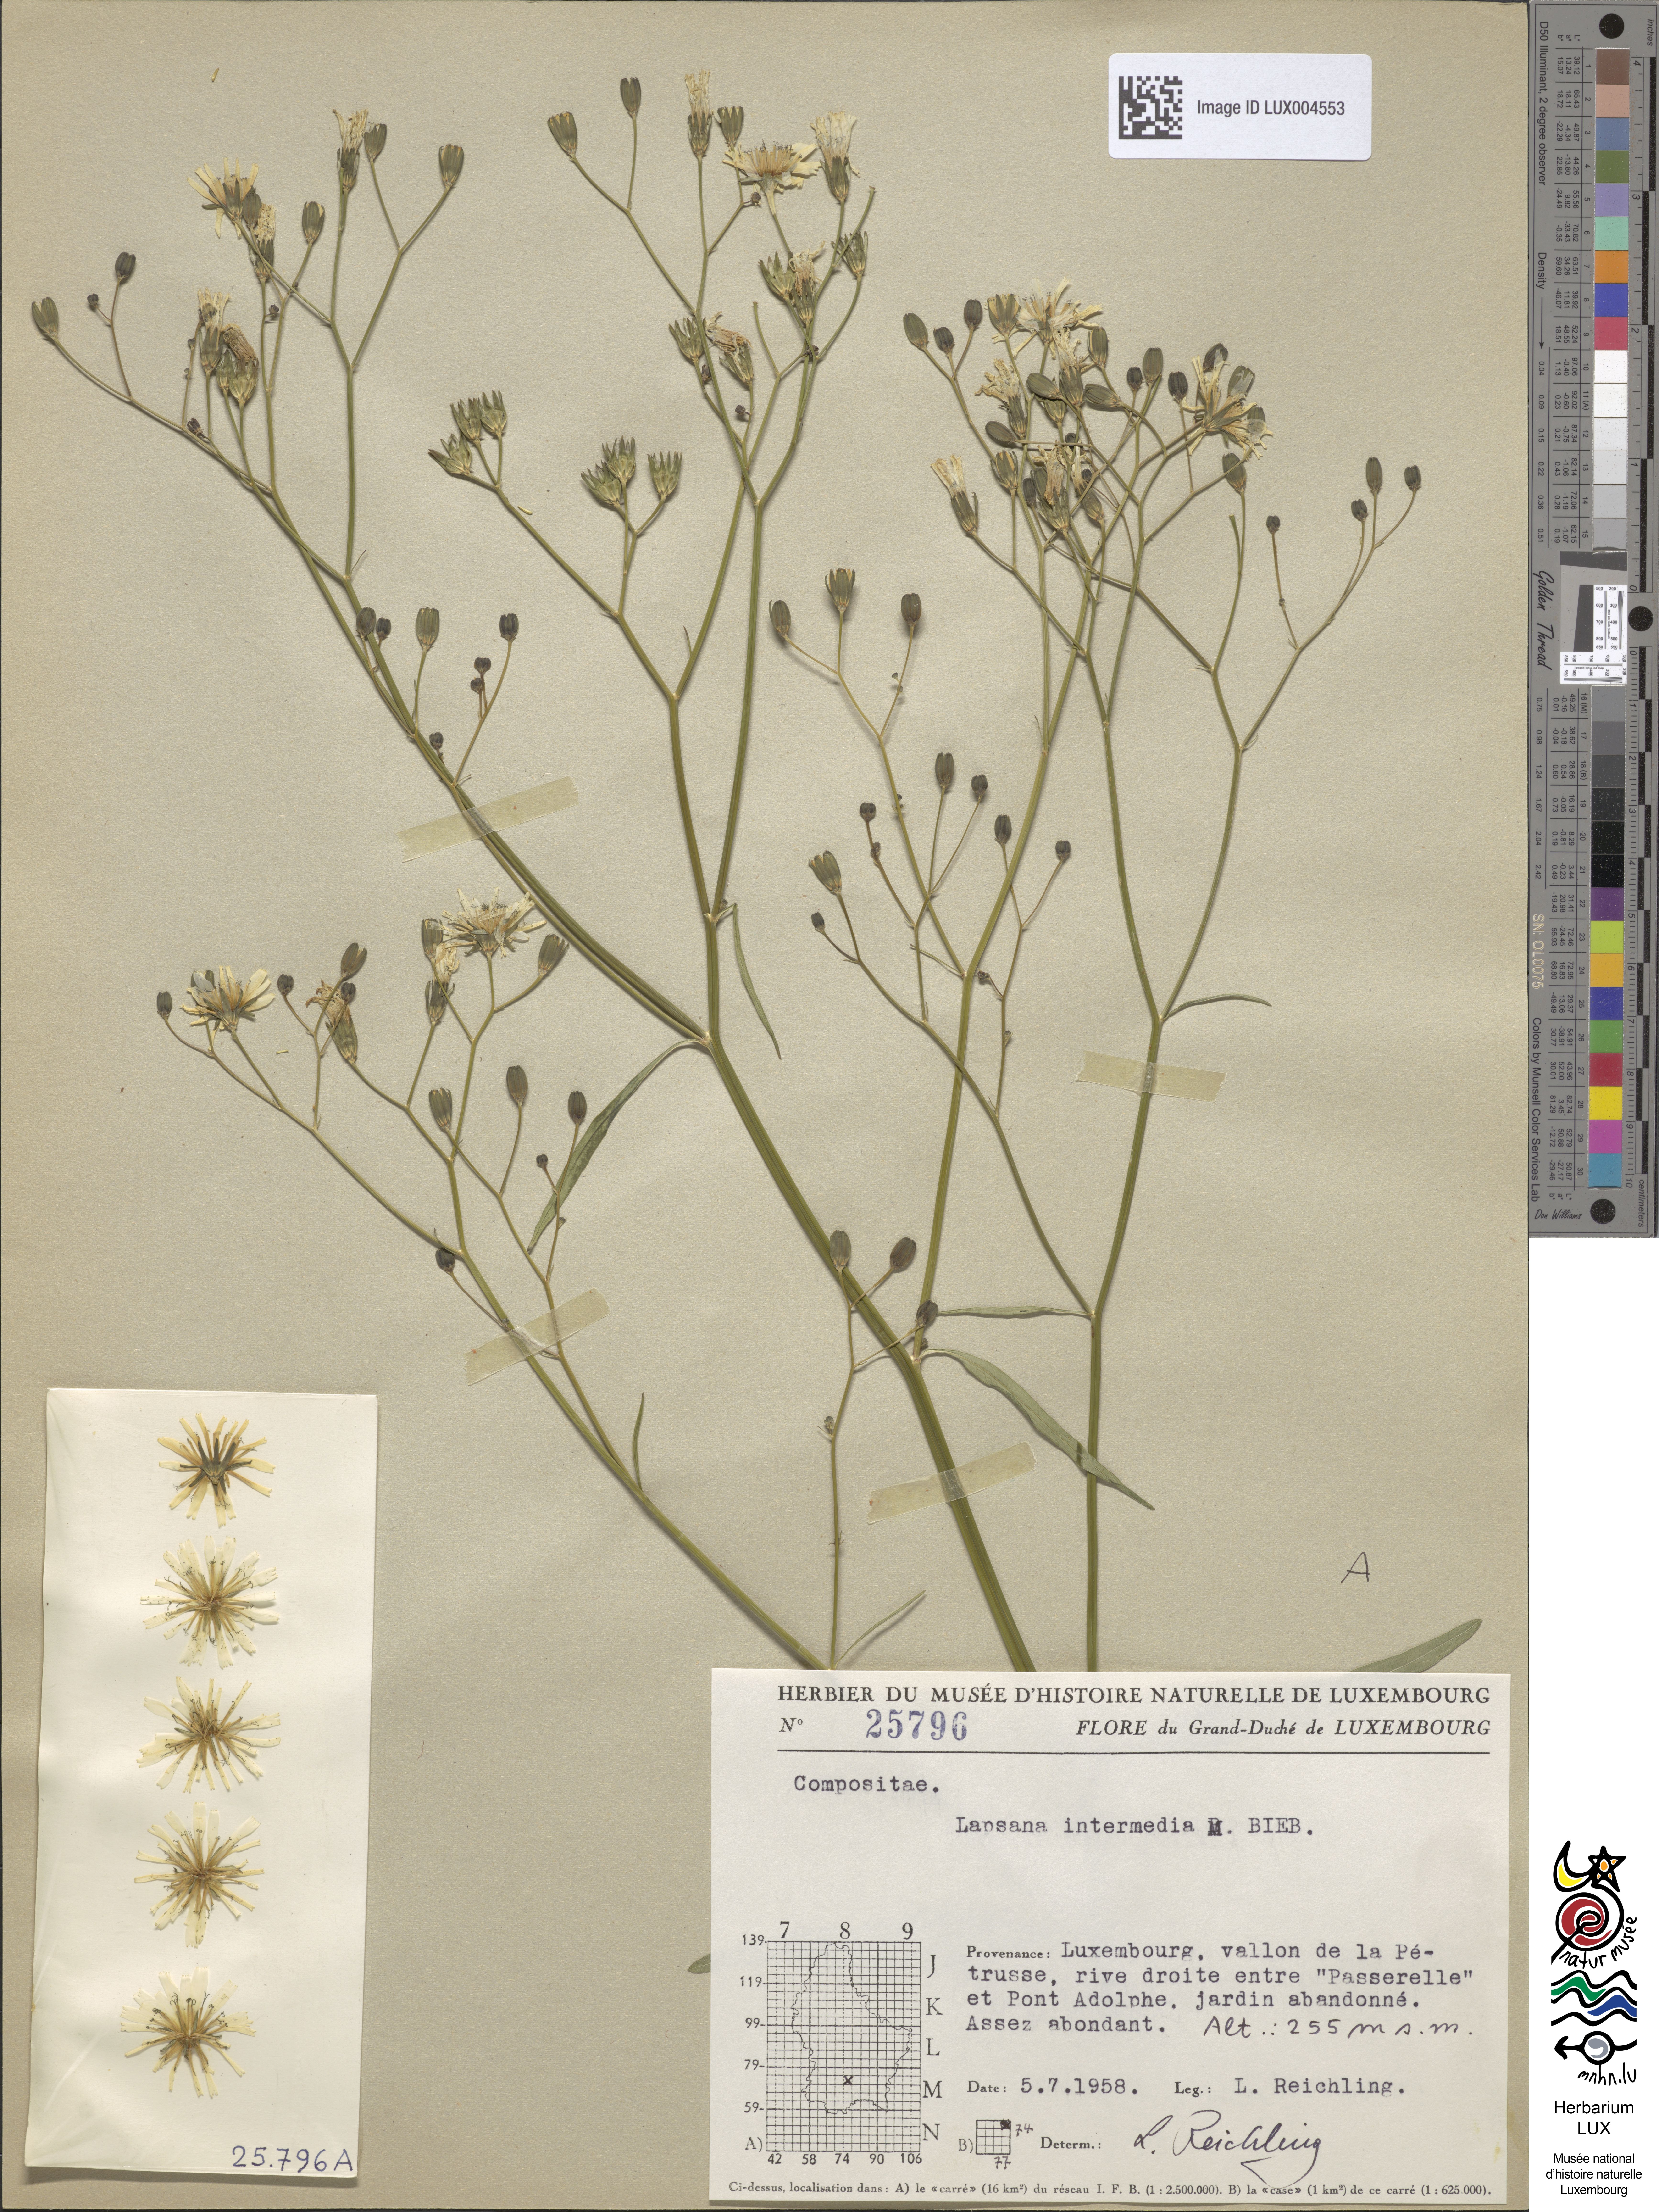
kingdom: Plantae
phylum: Tracheophyta
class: Magnoliopsida
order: Asterales
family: Asteraceae
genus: Lapsana
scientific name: Lapsana communis
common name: Nipplewort
